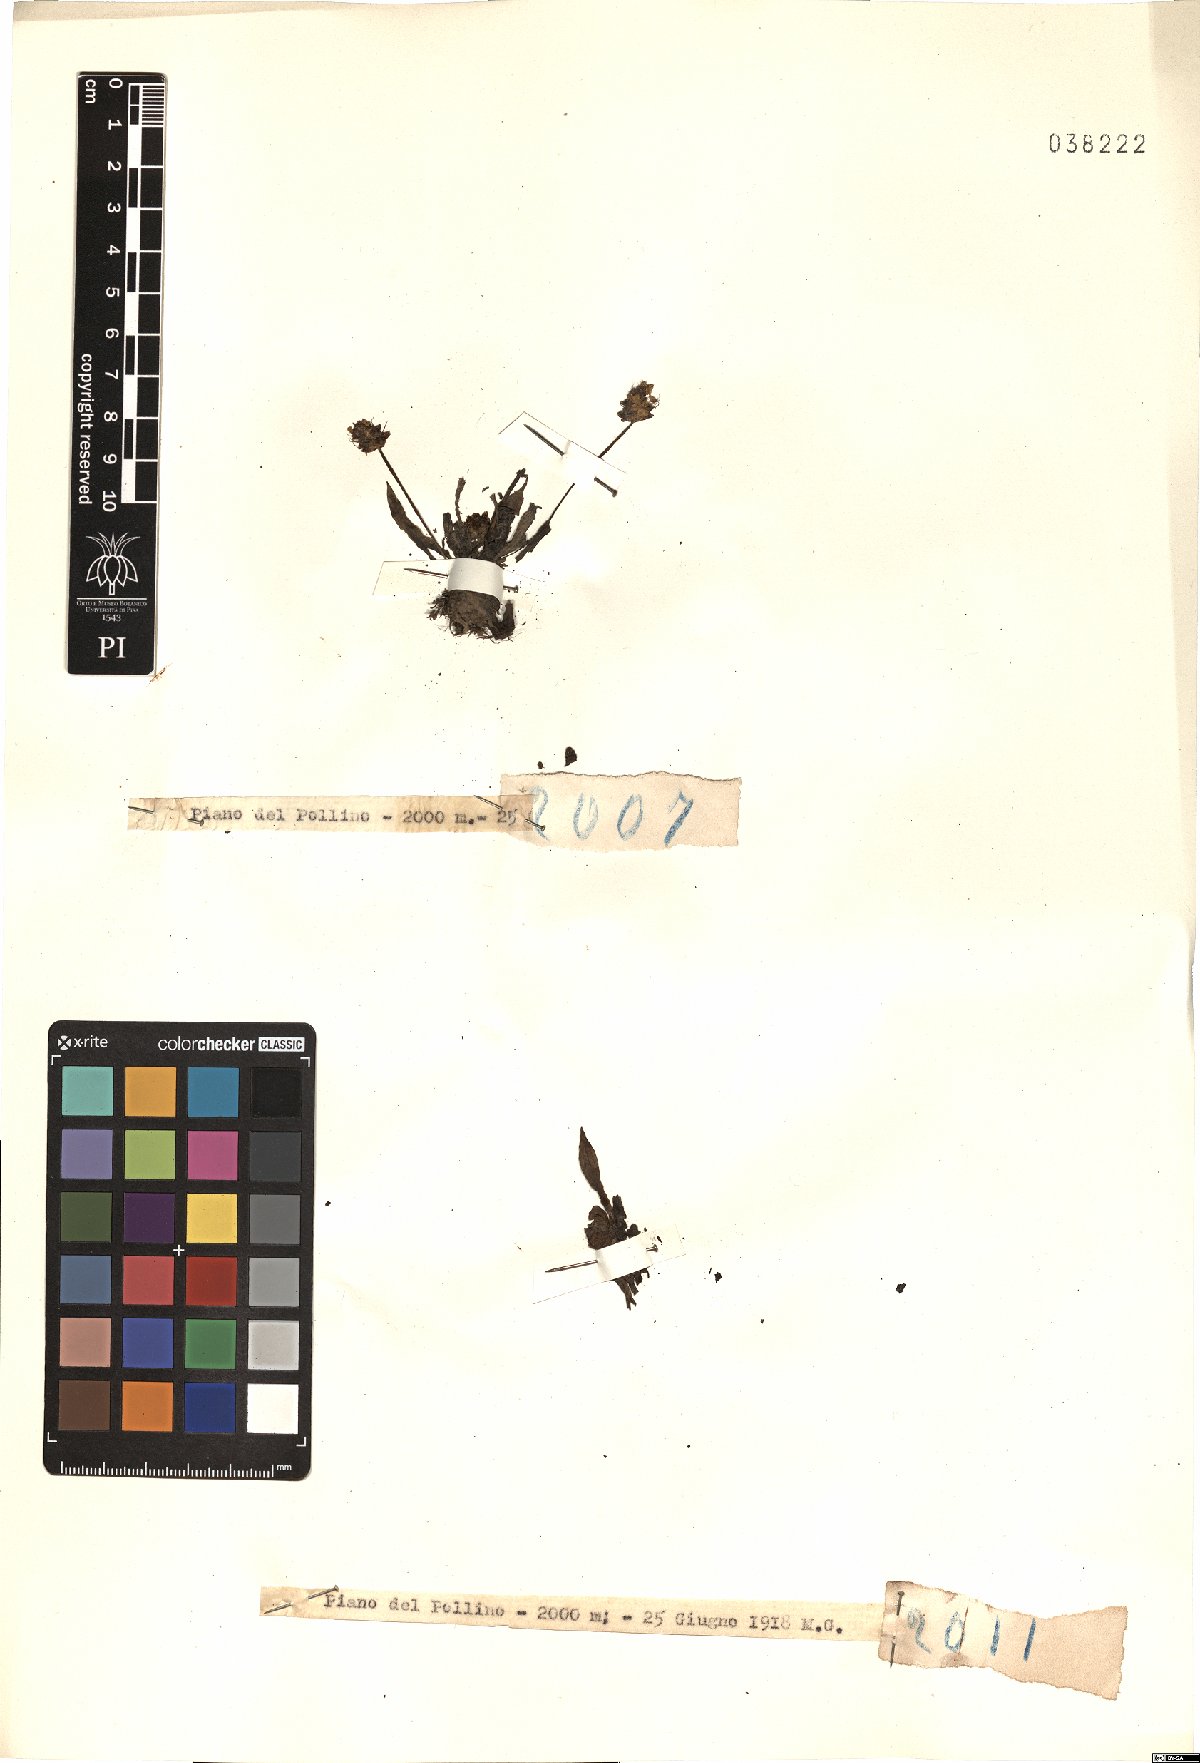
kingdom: Plantae
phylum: Tracheophyta
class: Magnoliopsida
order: Lamiales
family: Plantaginaceae
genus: Plantago
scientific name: Plantago
